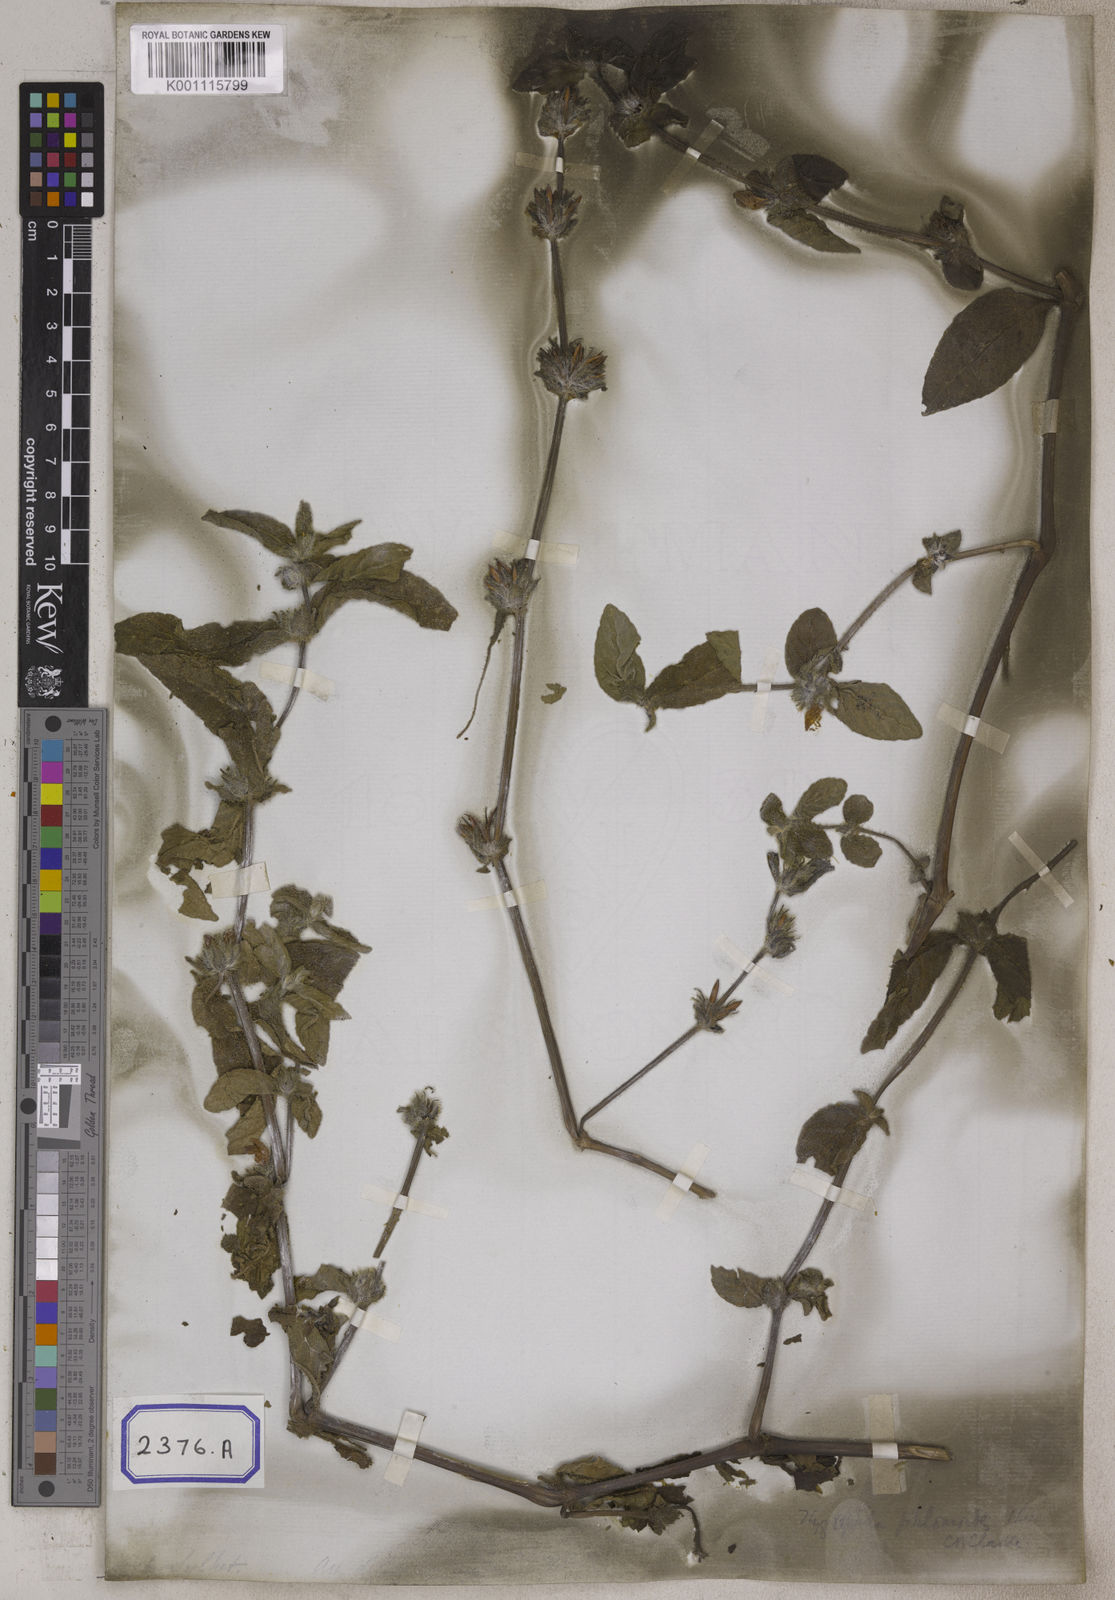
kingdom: Plantae
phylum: Tracheophyta
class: Magnoliopsida
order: Lamiales
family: Acanthaceae
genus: Hygrophila
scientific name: Hygrophila phlomoides
